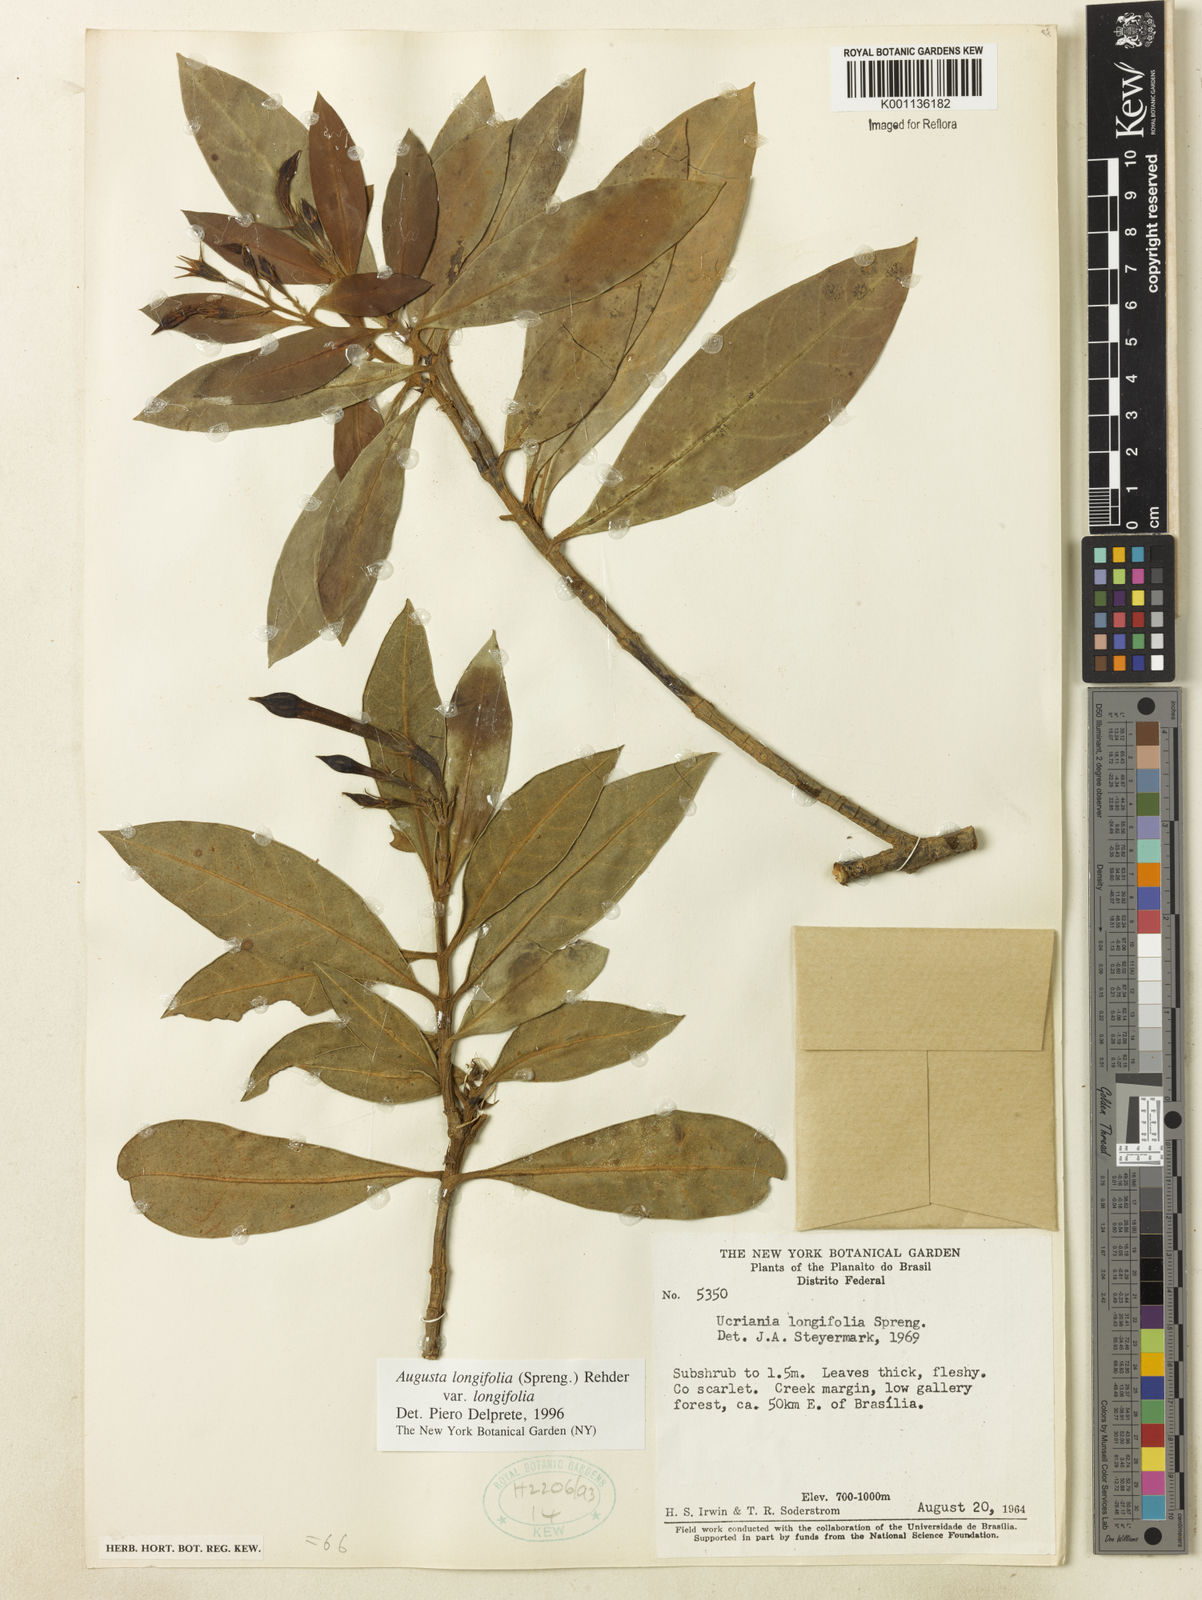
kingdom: Plantae
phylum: Tracheophyta
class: Magnoliopsida
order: Gentianales
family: Rubiaceae
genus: Augusta
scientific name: Augusta longifolia
